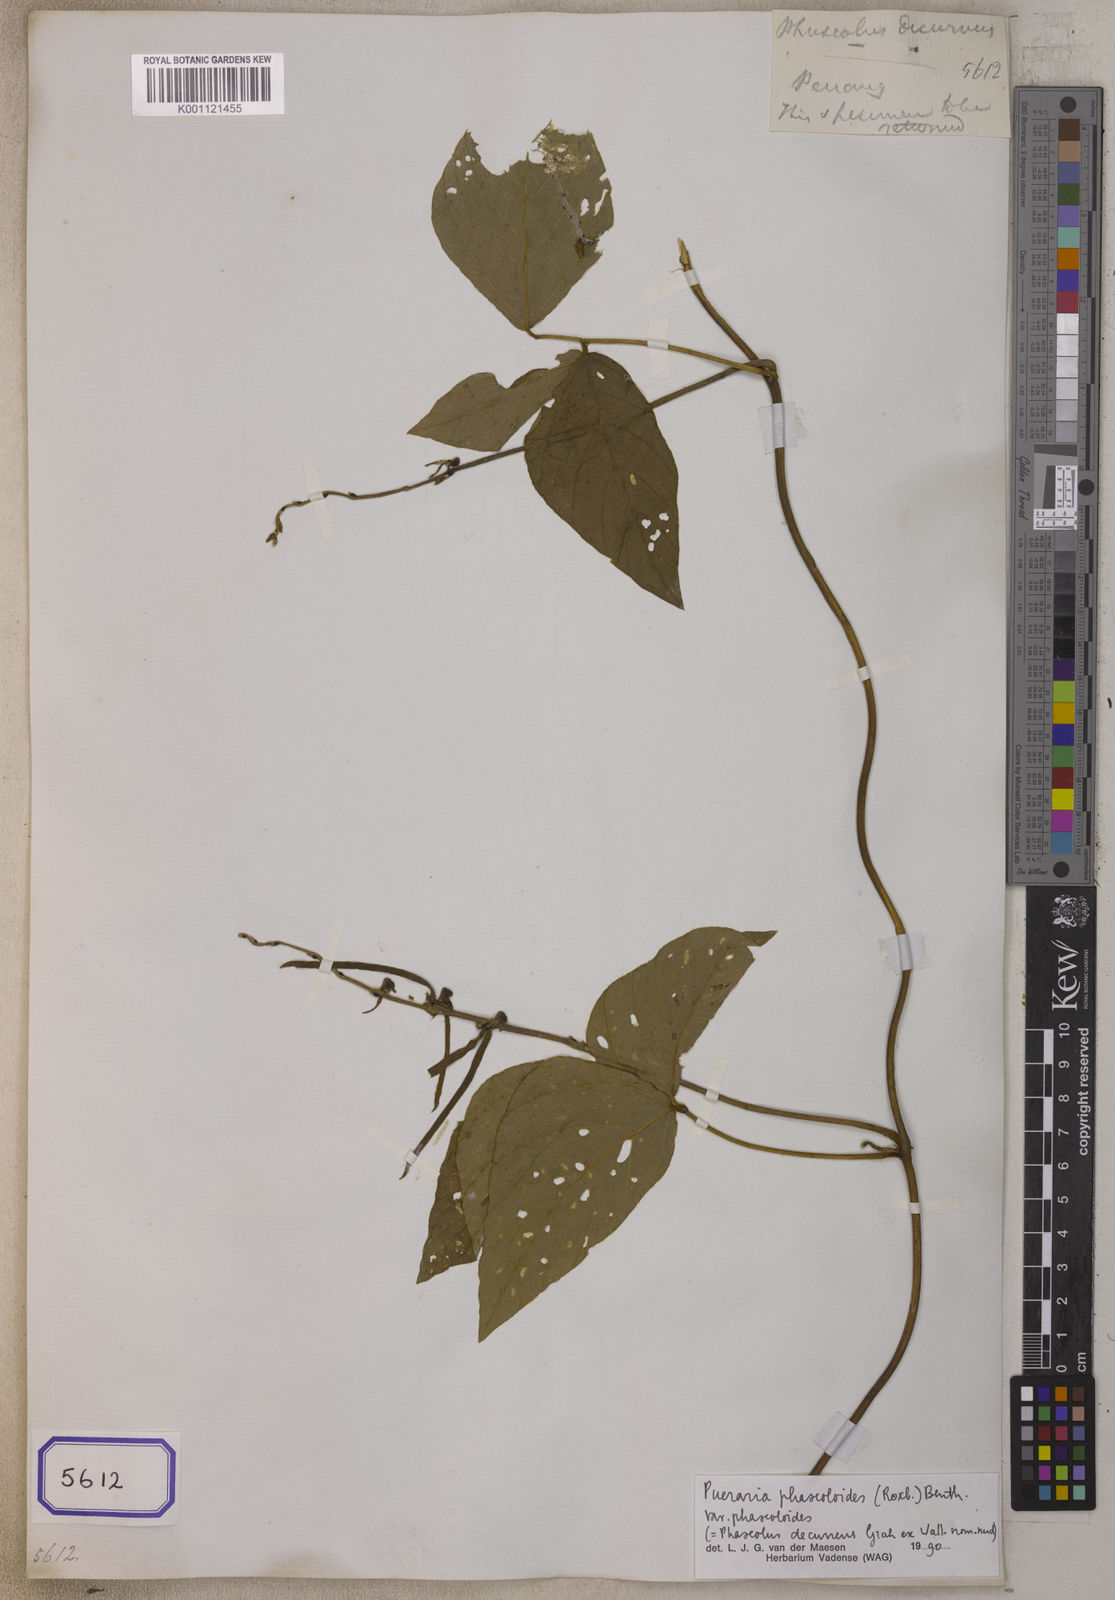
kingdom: Plantae
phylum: Tracheophyta
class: Magnoliopsida
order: Fabales
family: Fabaceae
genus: Neustanthus
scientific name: Neustanthus phaseoloides
